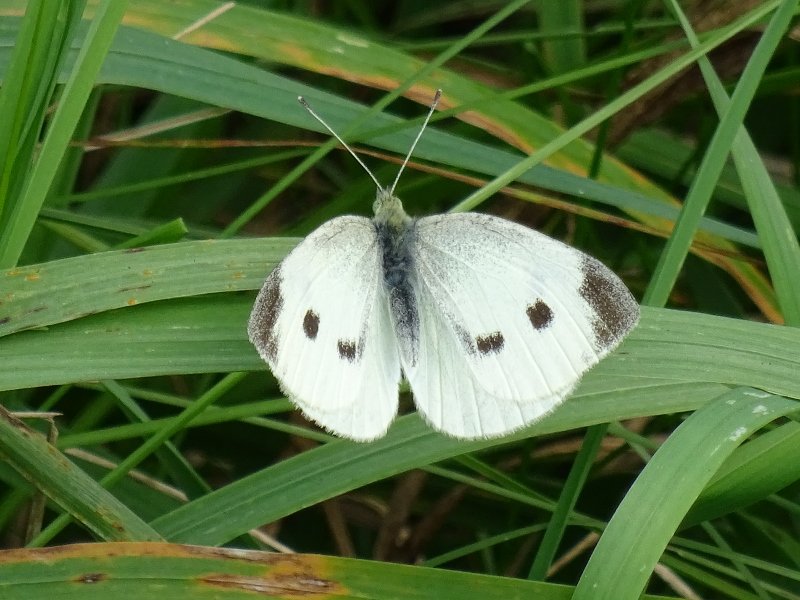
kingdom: Animalia
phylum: Arthropoda
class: Insecta
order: Lepidoptera
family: Pieridae
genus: Pieris
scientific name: Pieris rapae
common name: Cabbage White
